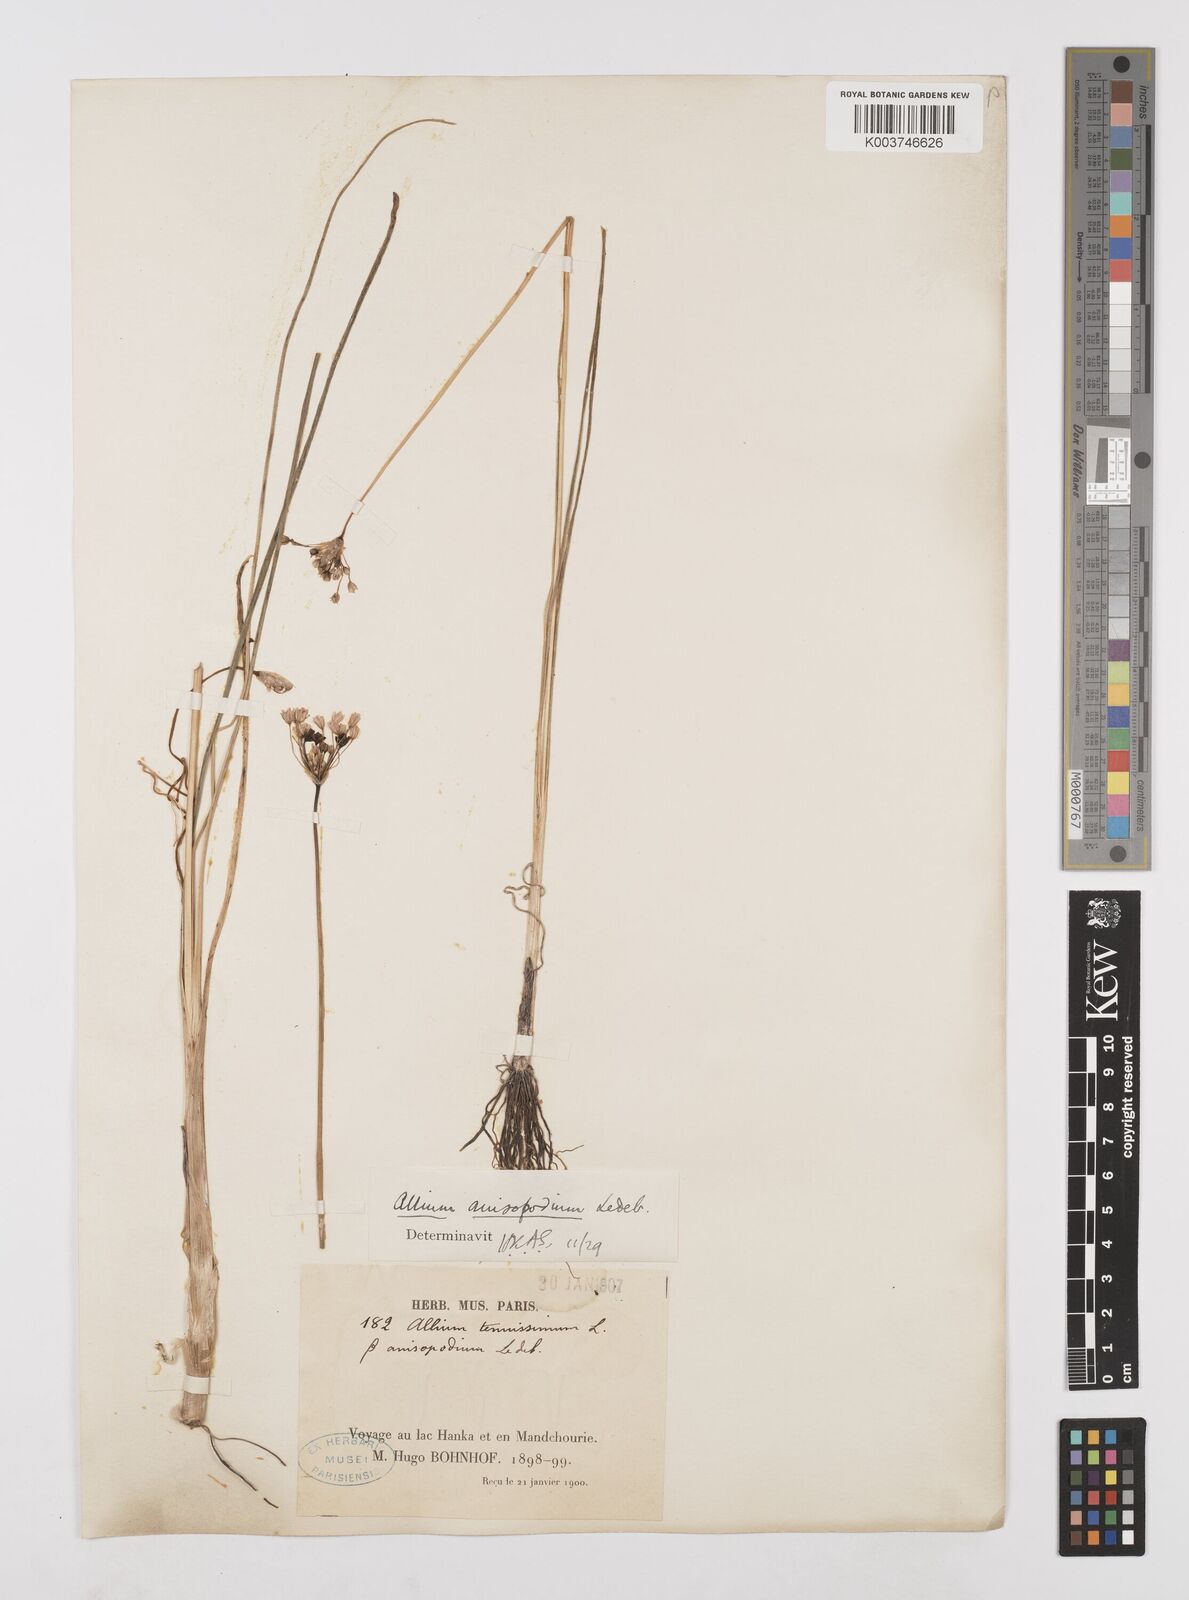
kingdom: Plantae
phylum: Tracheophyta
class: Liliopsida
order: Asparagales
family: Amaryllidaceae
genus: Allium
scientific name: Allium anisopodium
